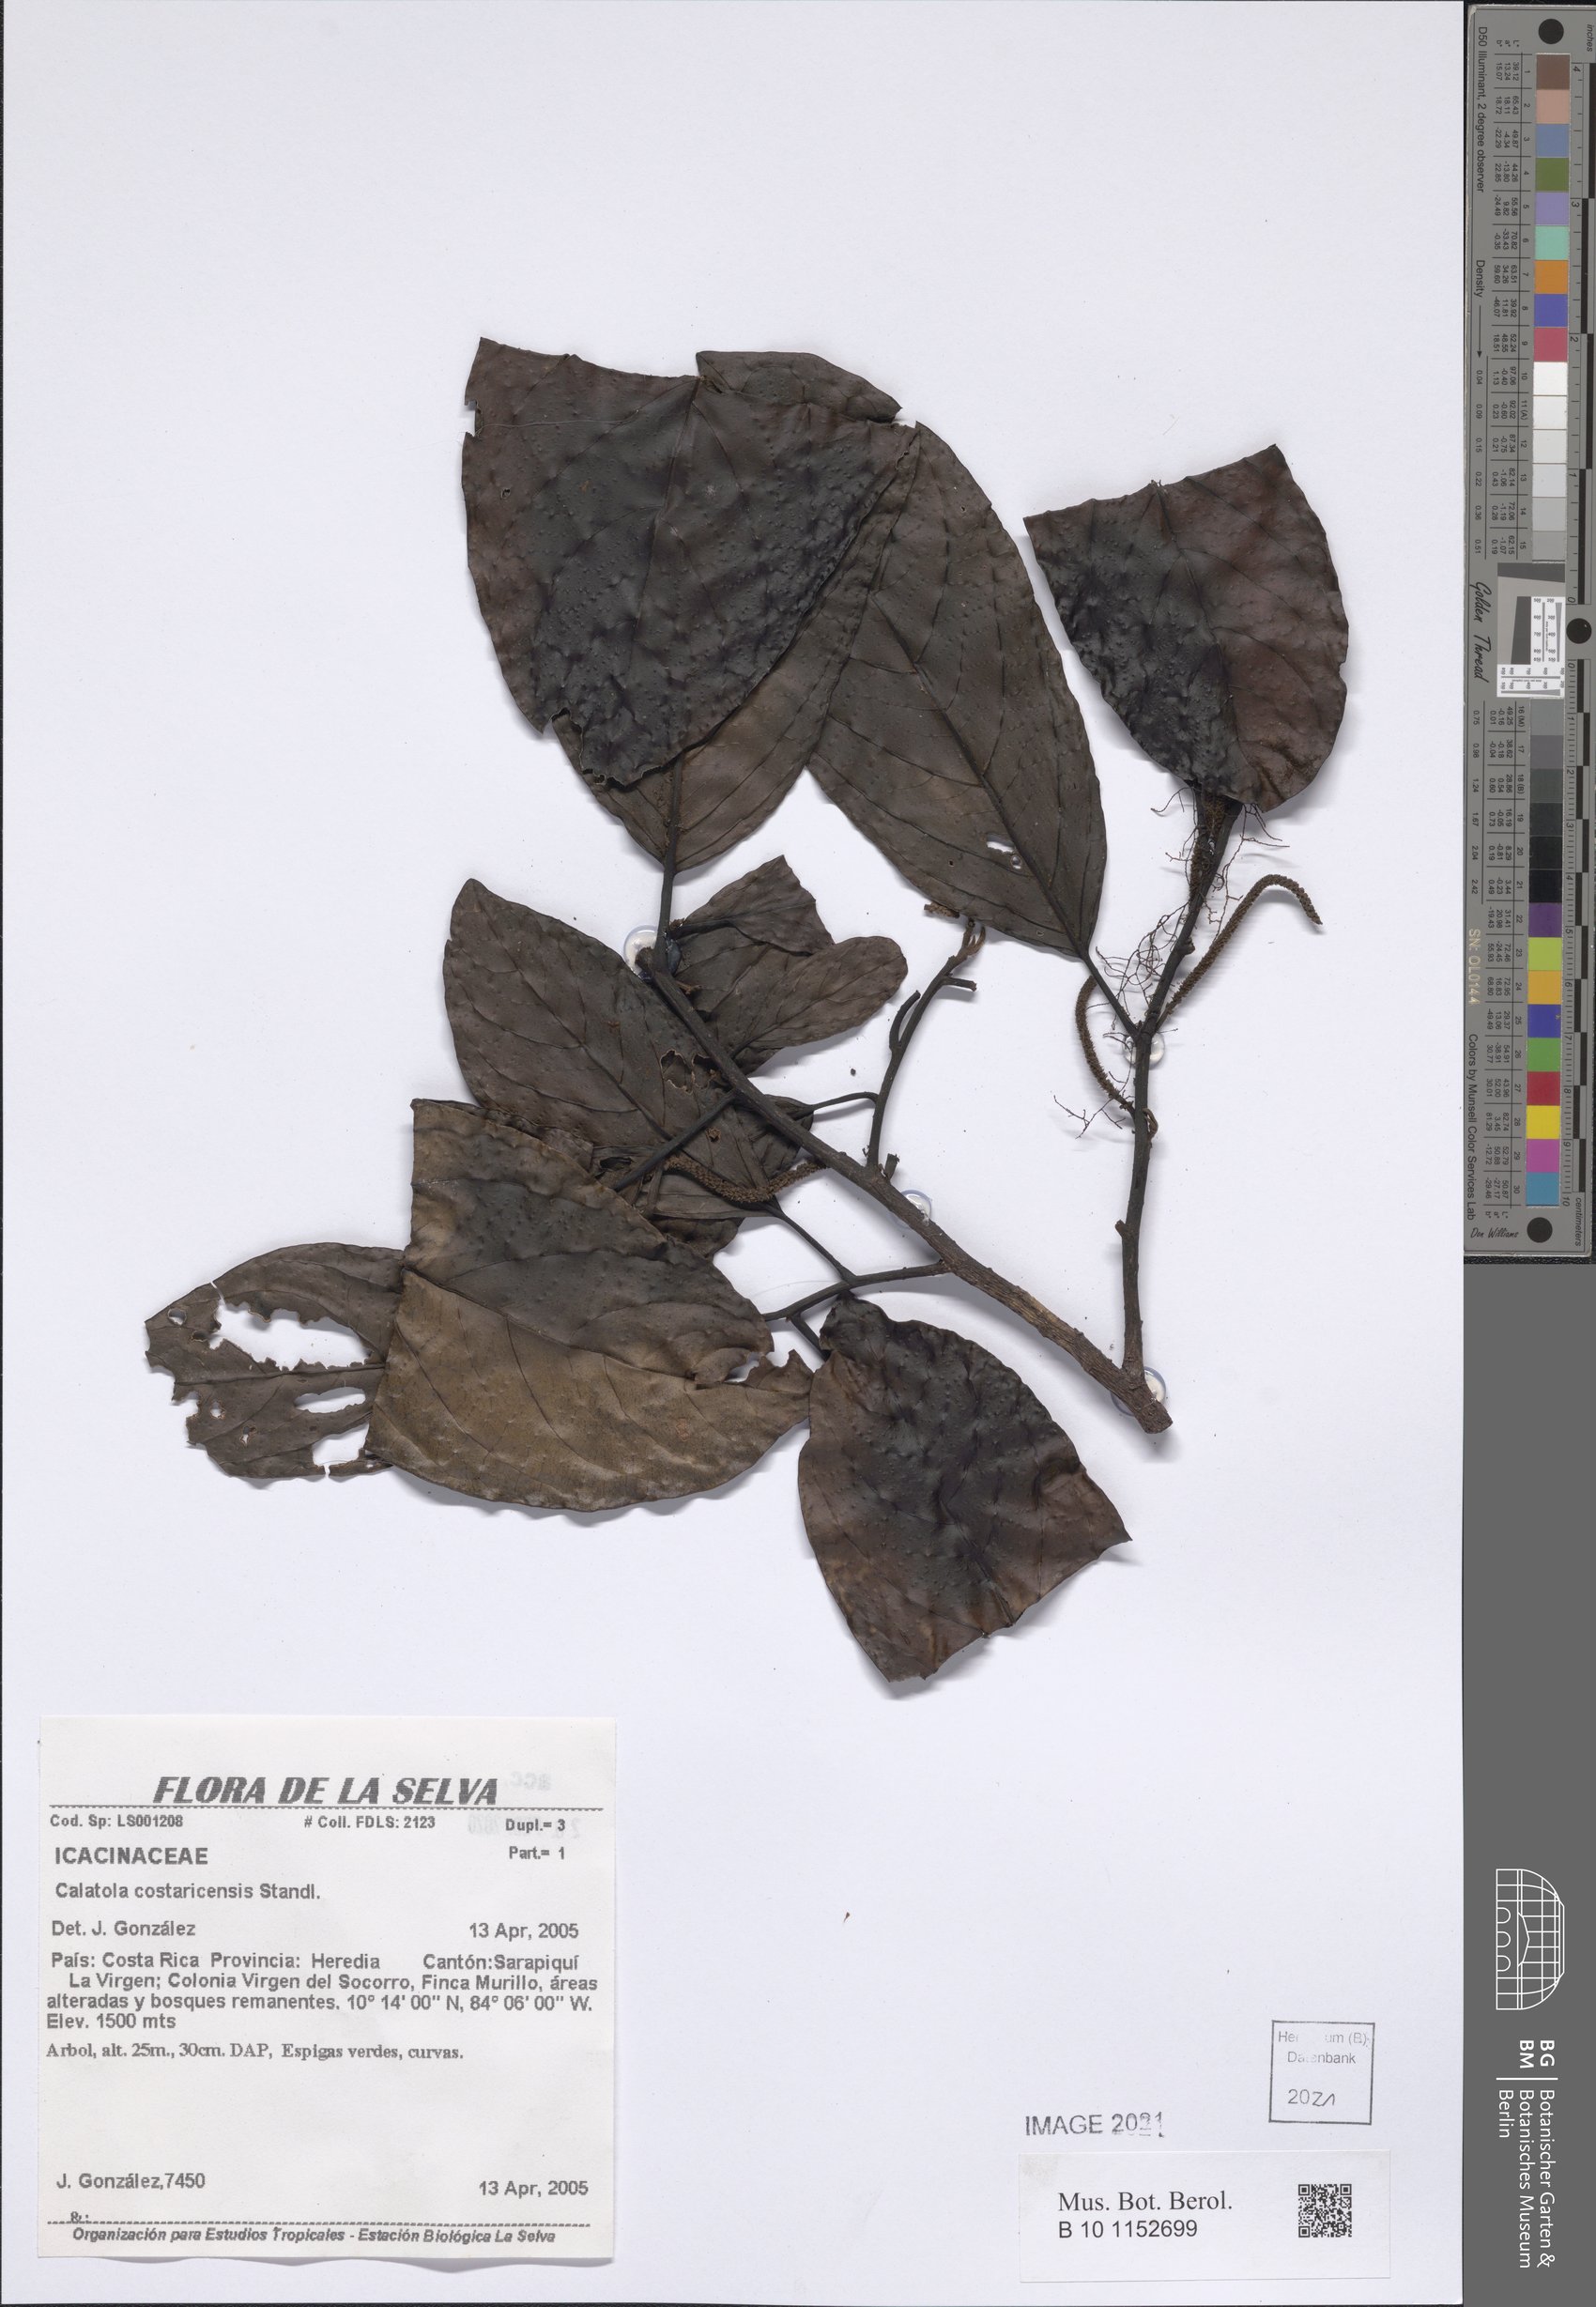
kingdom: Plantae
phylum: Tracheophyta
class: Magnoliopsida
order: Metteniusales
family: Metteniusaceae
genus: Calatola
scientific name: Calatola costaricensis
